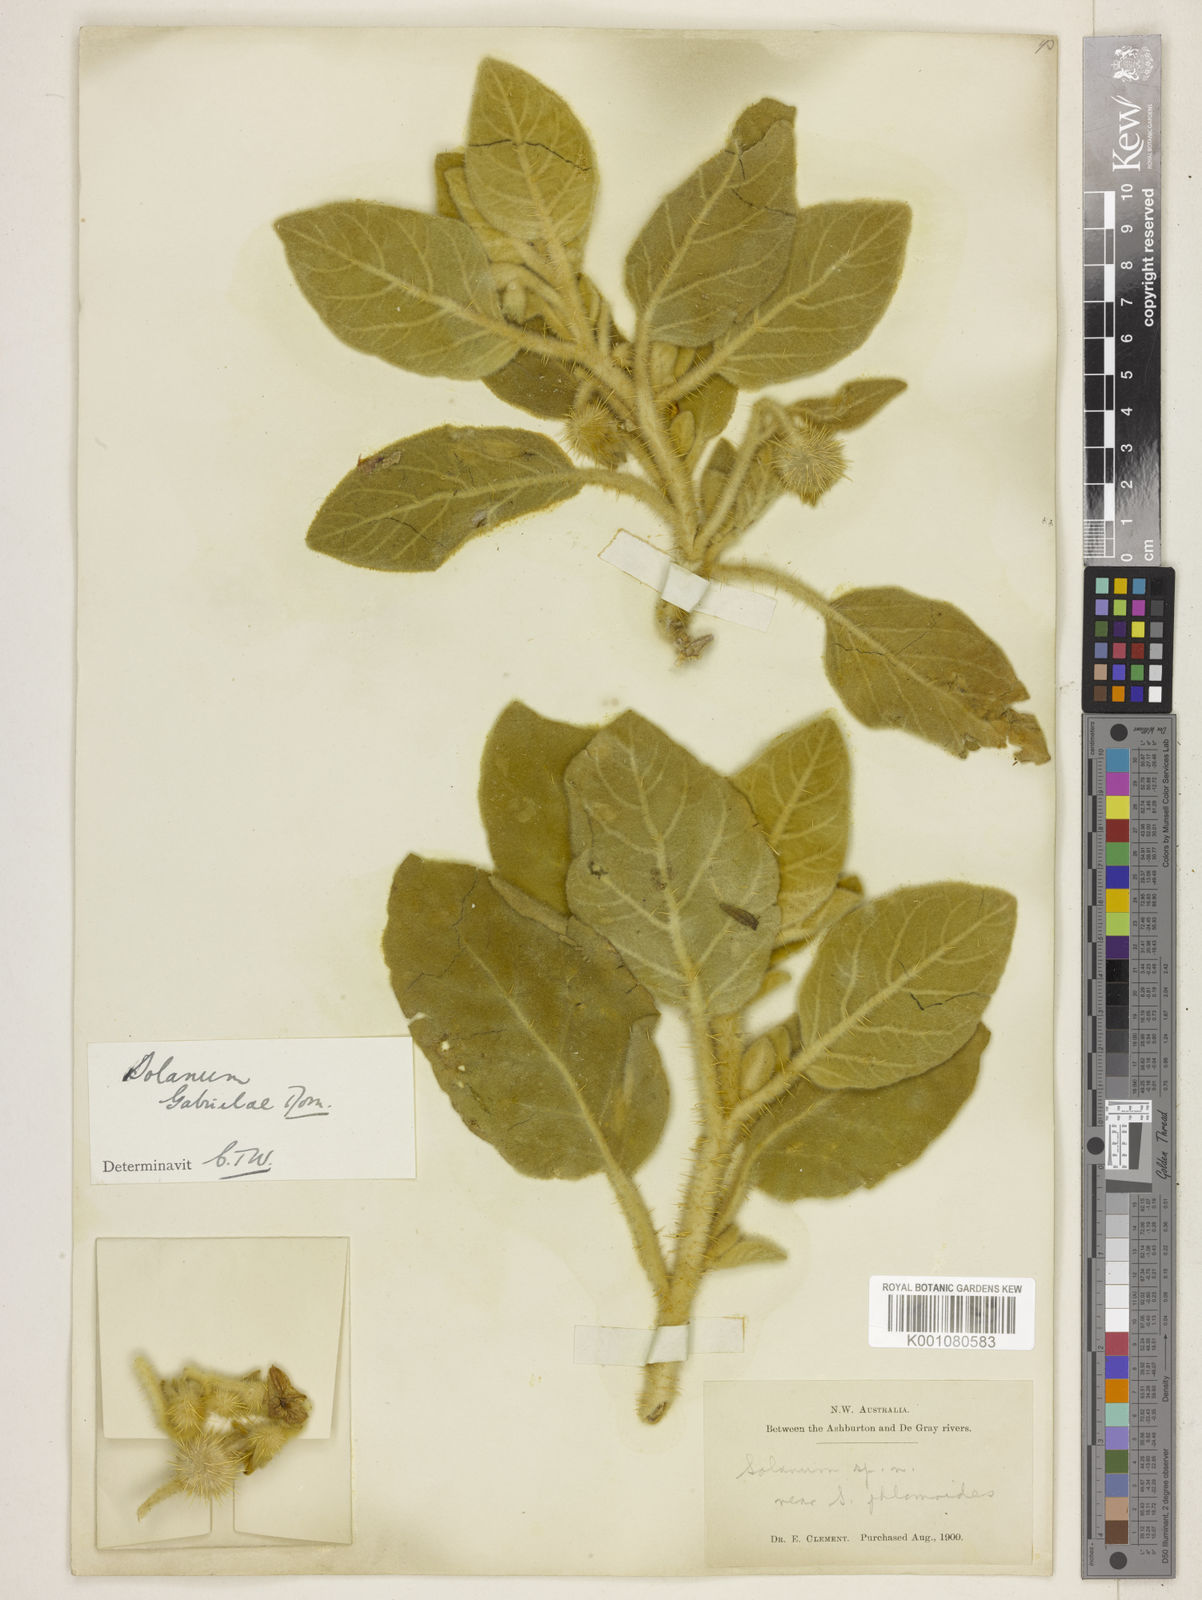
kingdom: Plantae
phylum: Tracheophyta
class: Magnoliopsida
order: Solanales
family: Solanaceae
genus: Solanum
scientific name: Solanum gabrielae
